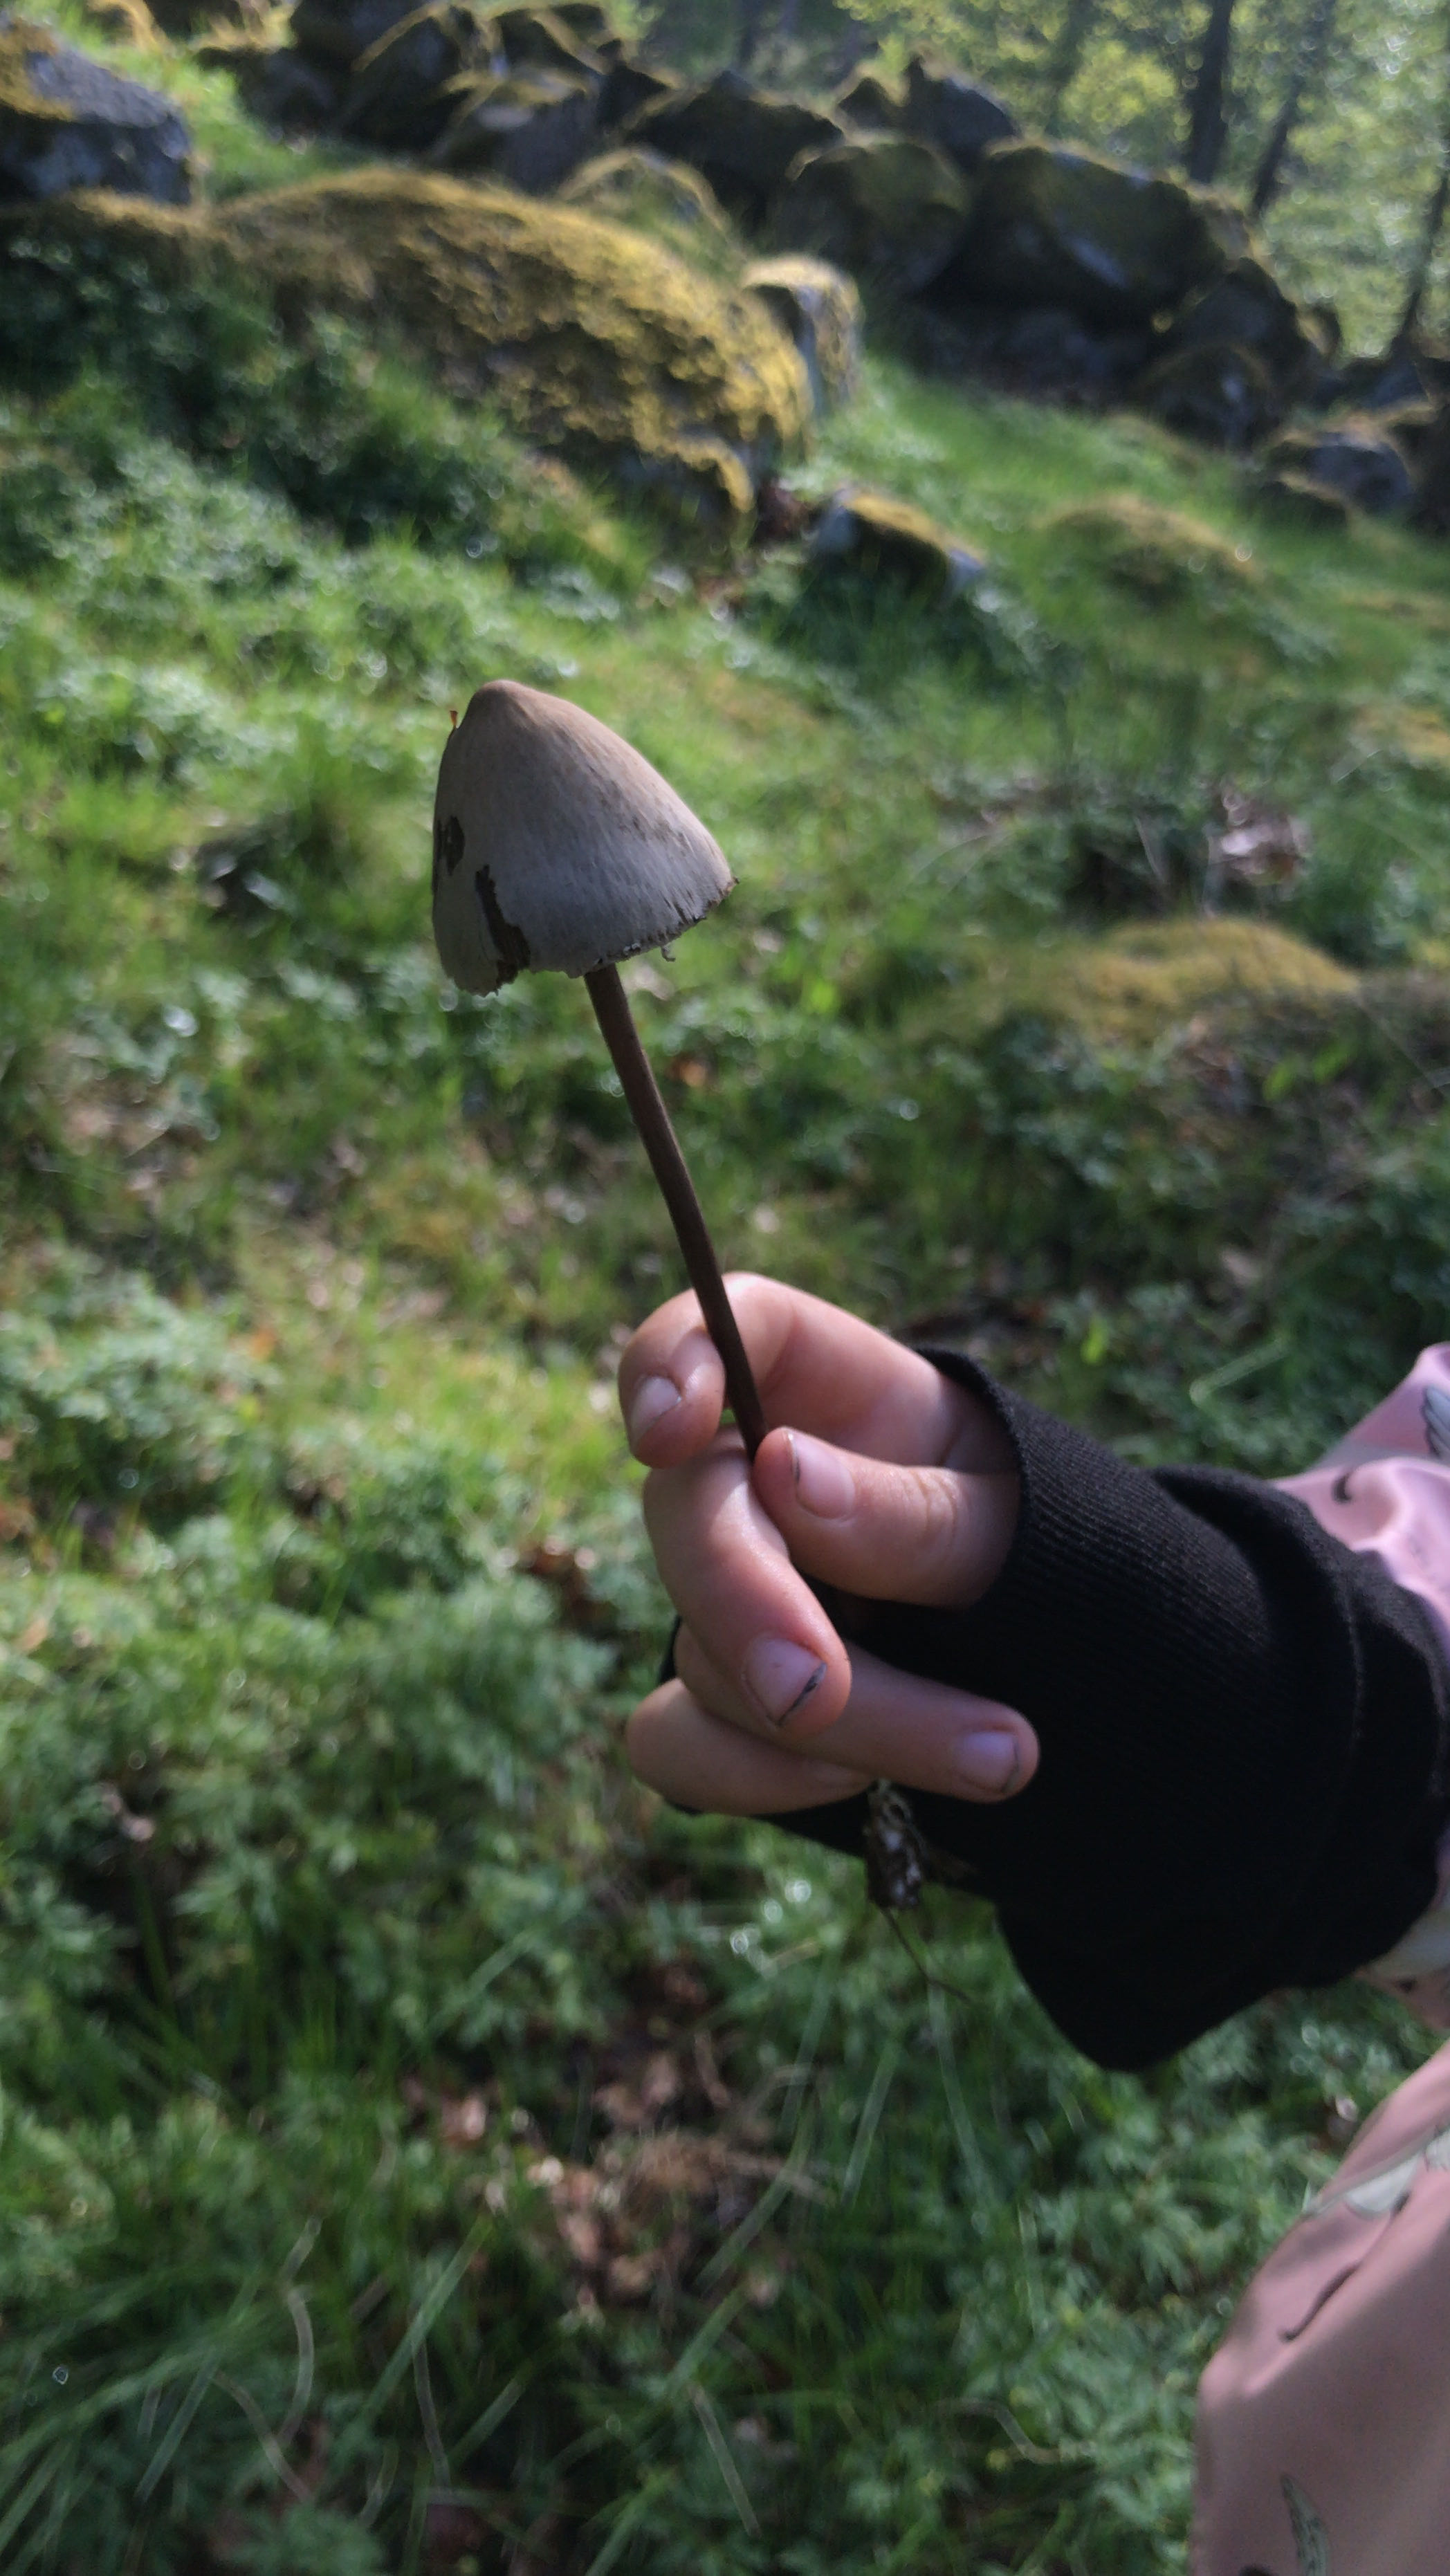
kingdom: Fungi
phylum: Basidiomycota
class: Agaricomycetes
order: Agaricales
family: Bolbitiaceae
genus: Panaeolus
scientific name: Panaeolus
